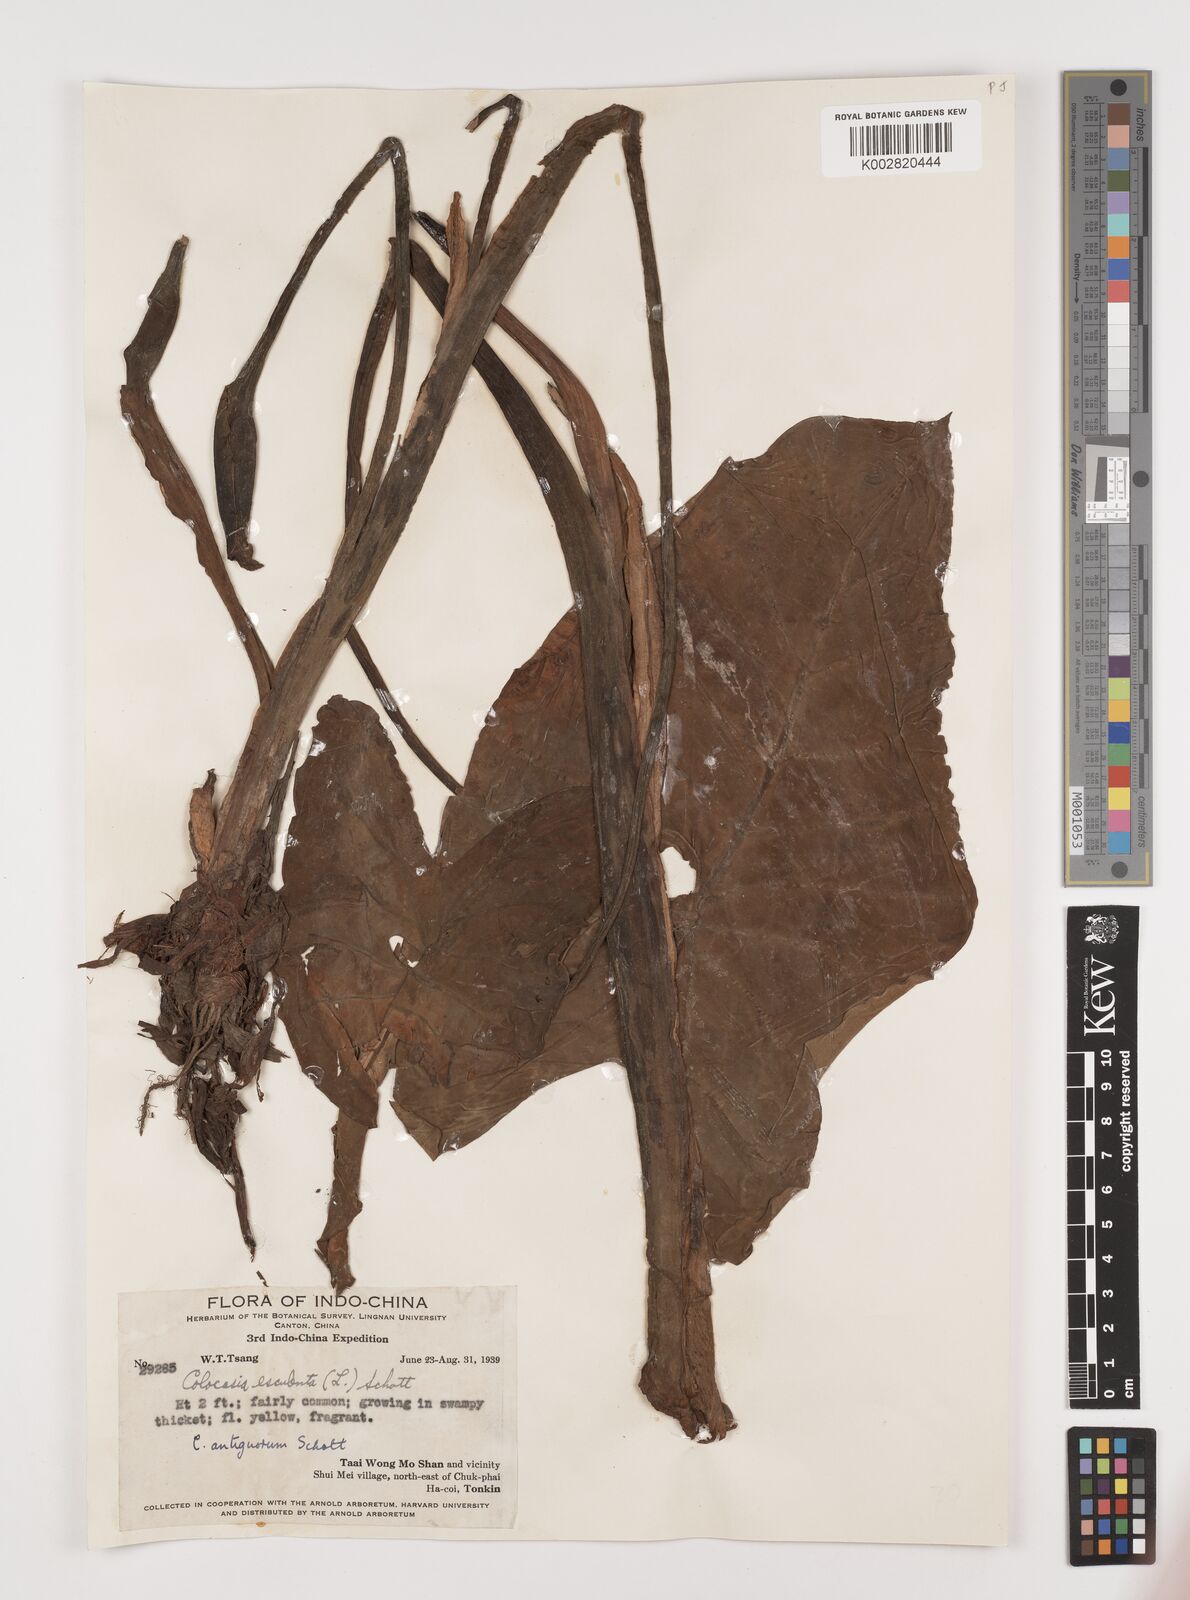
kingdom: Plantae
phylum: Tracheophyta
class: Liliopsida
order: Alismatales
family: Araceae
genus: Colocasia
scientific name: Colocasia esculenta
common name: Taro
